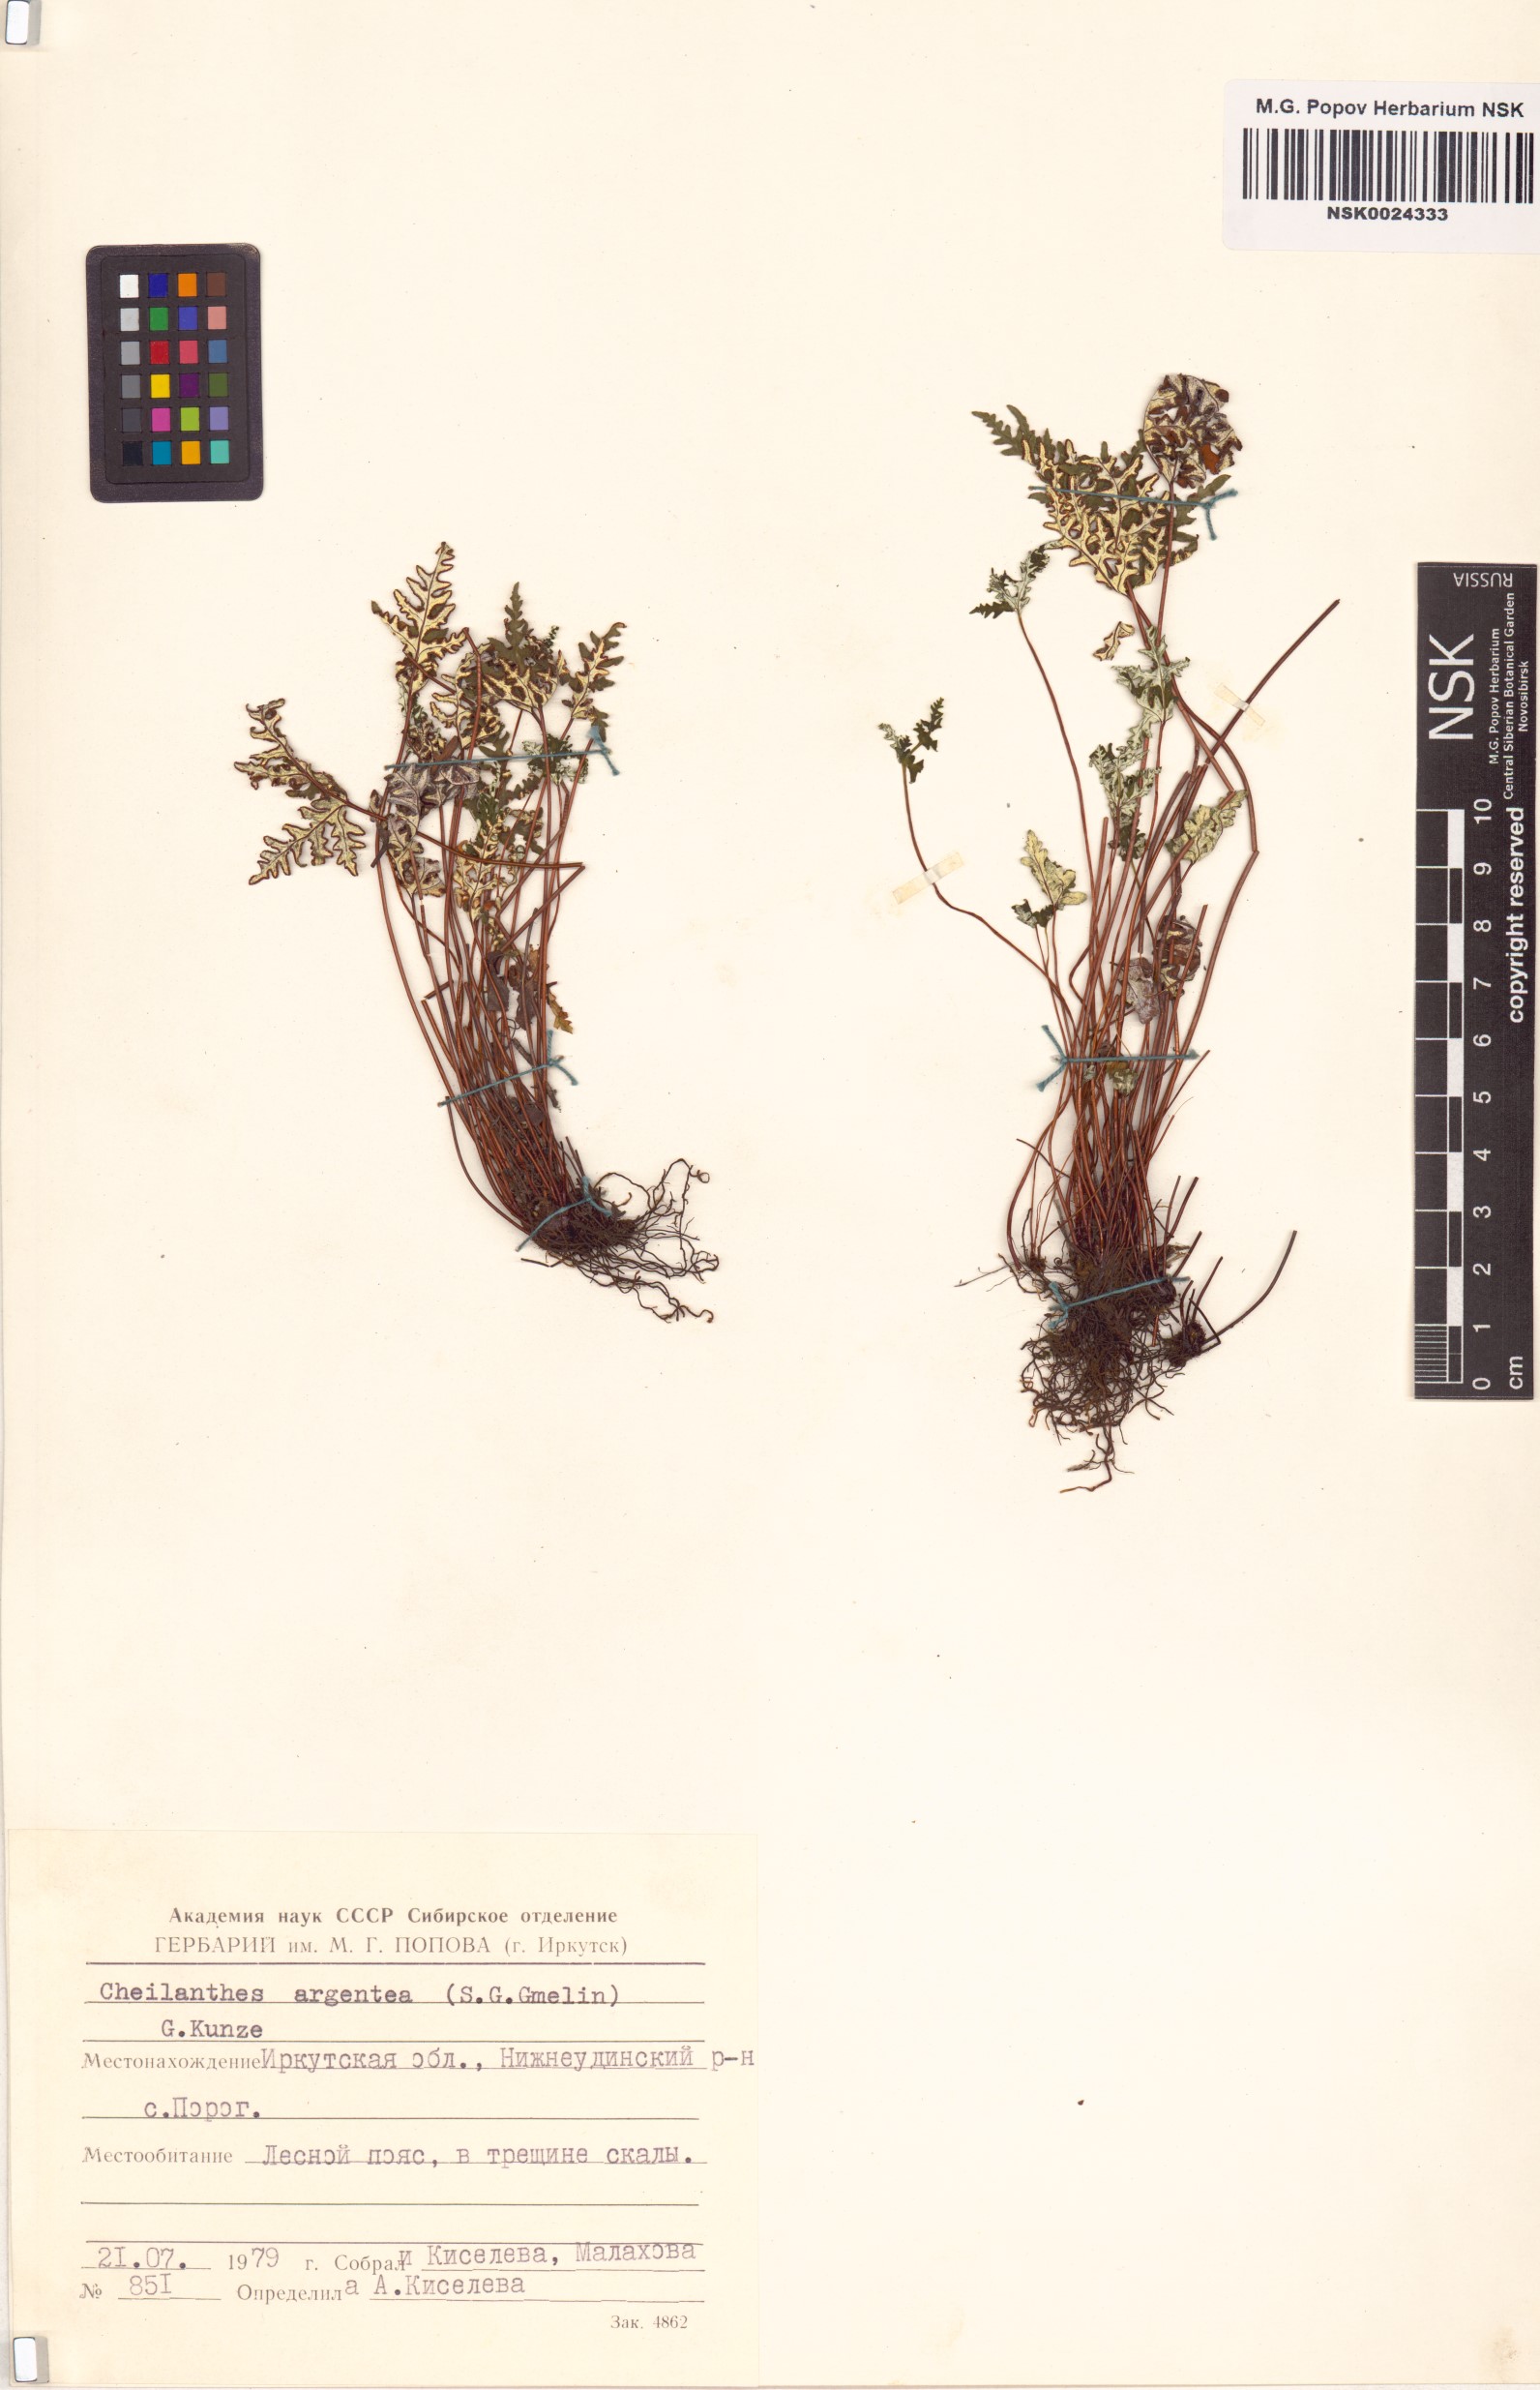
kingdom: Plantae
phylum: Tracheophyta
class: Polypodiopsida
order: Polypodiales
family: Pteridaceae
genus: Aleuritopteris
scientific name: Aleuritopteris argentea
